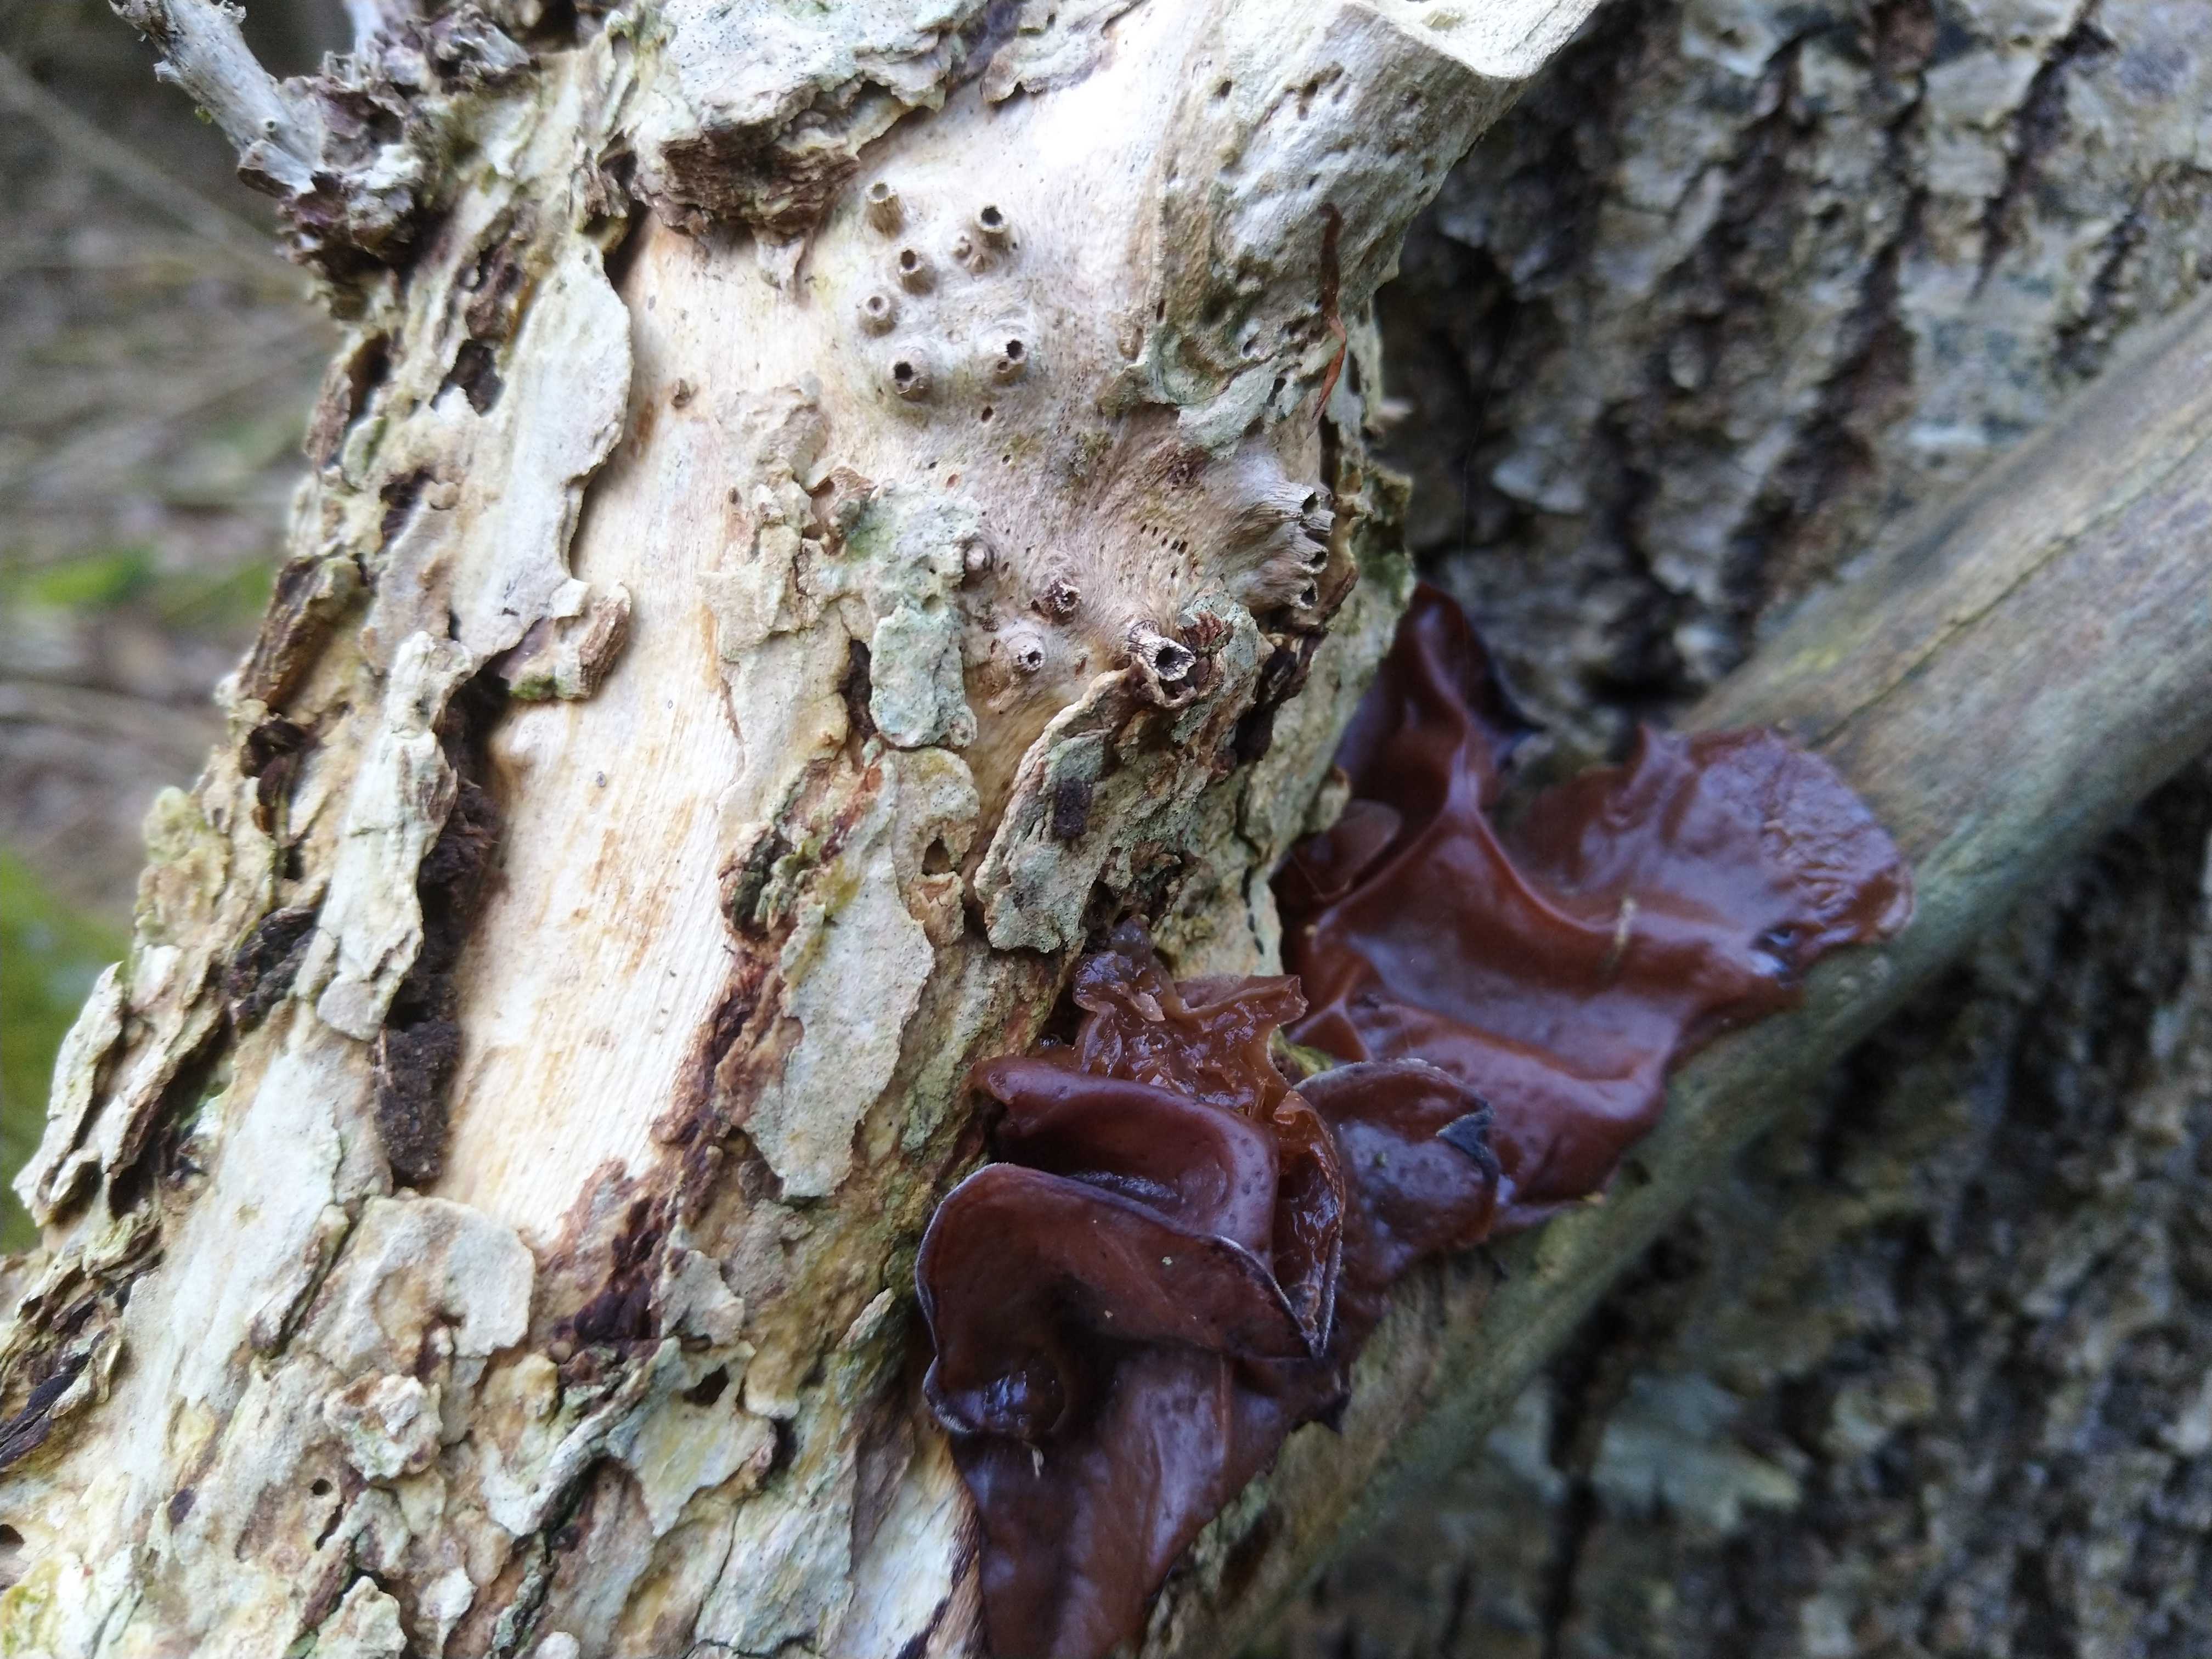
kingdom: Fungi
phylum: Basidiomycota
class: Agaricomycetes
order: Auriculariales
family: Auriculariaceae
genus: Auricularia
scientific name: Auricularia auricula-judae
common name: almindelig judasøre
